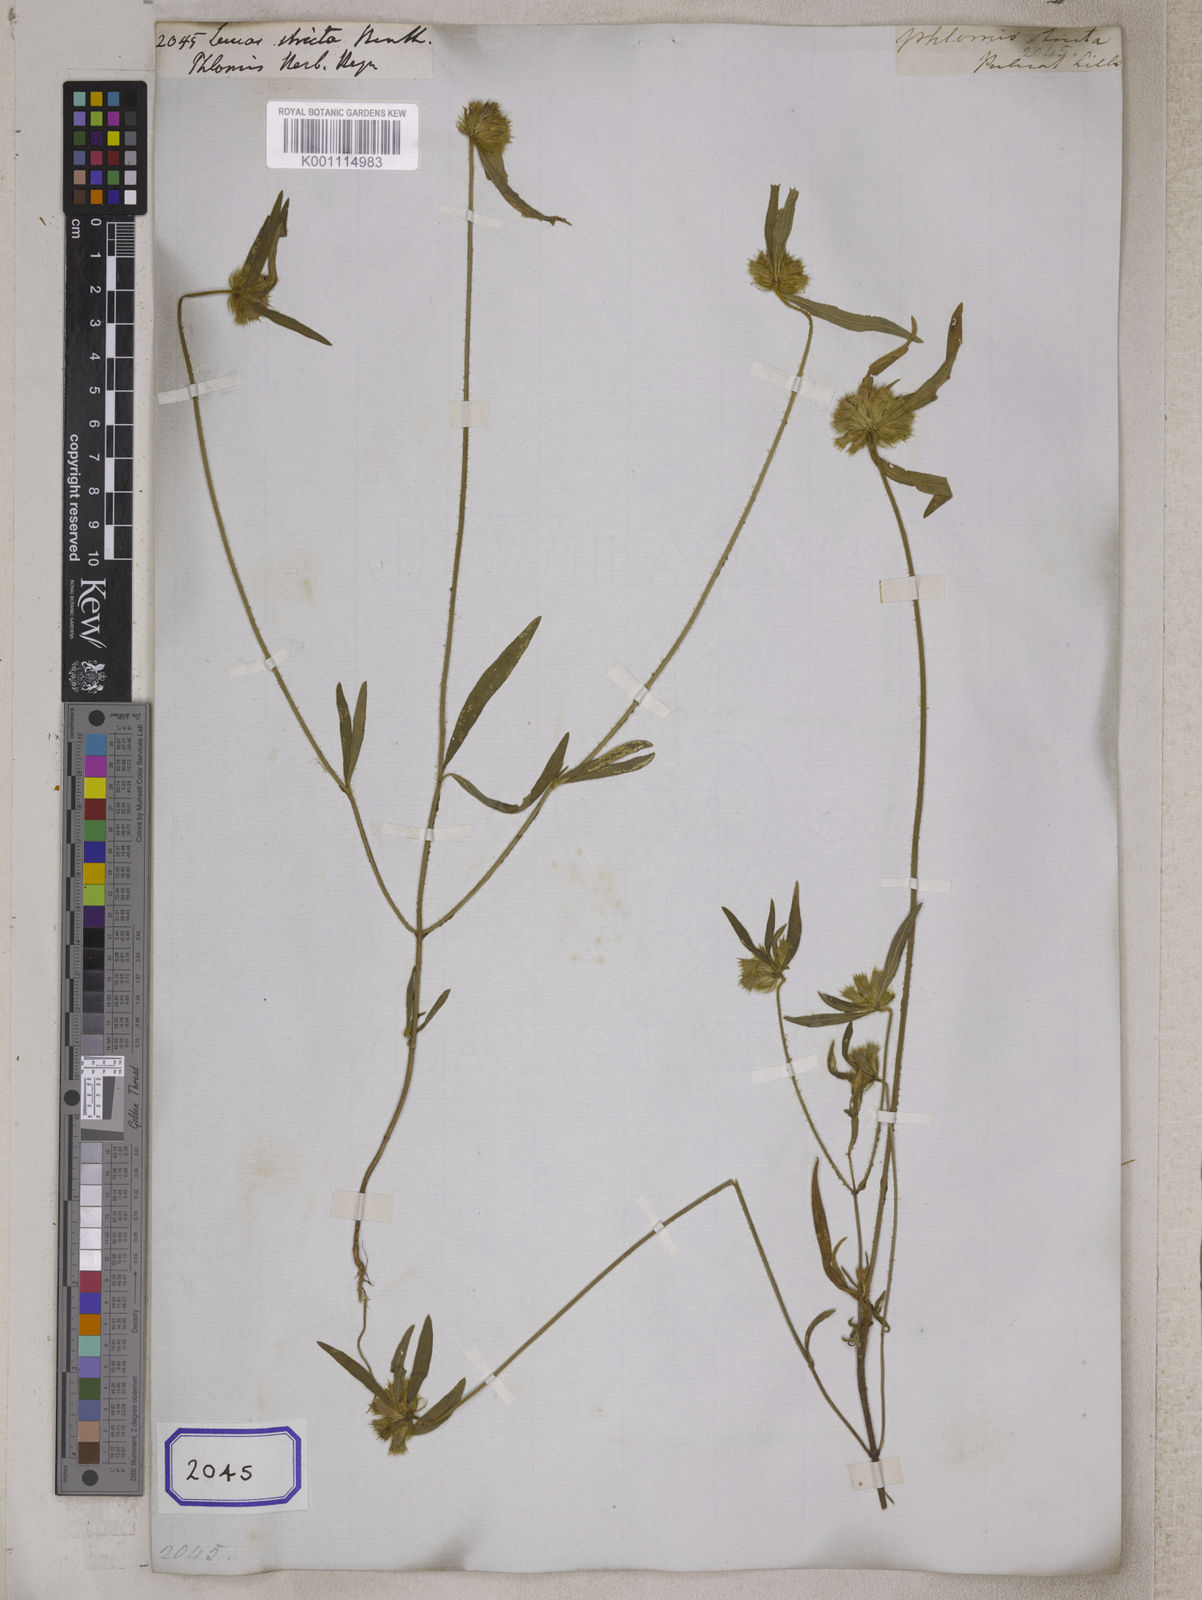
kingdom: Plantae
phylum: Tracheophyta
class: Magnoliopsida
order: Lamiales
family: Lamiaceae
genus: Leucas
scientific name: Leucas stricta
